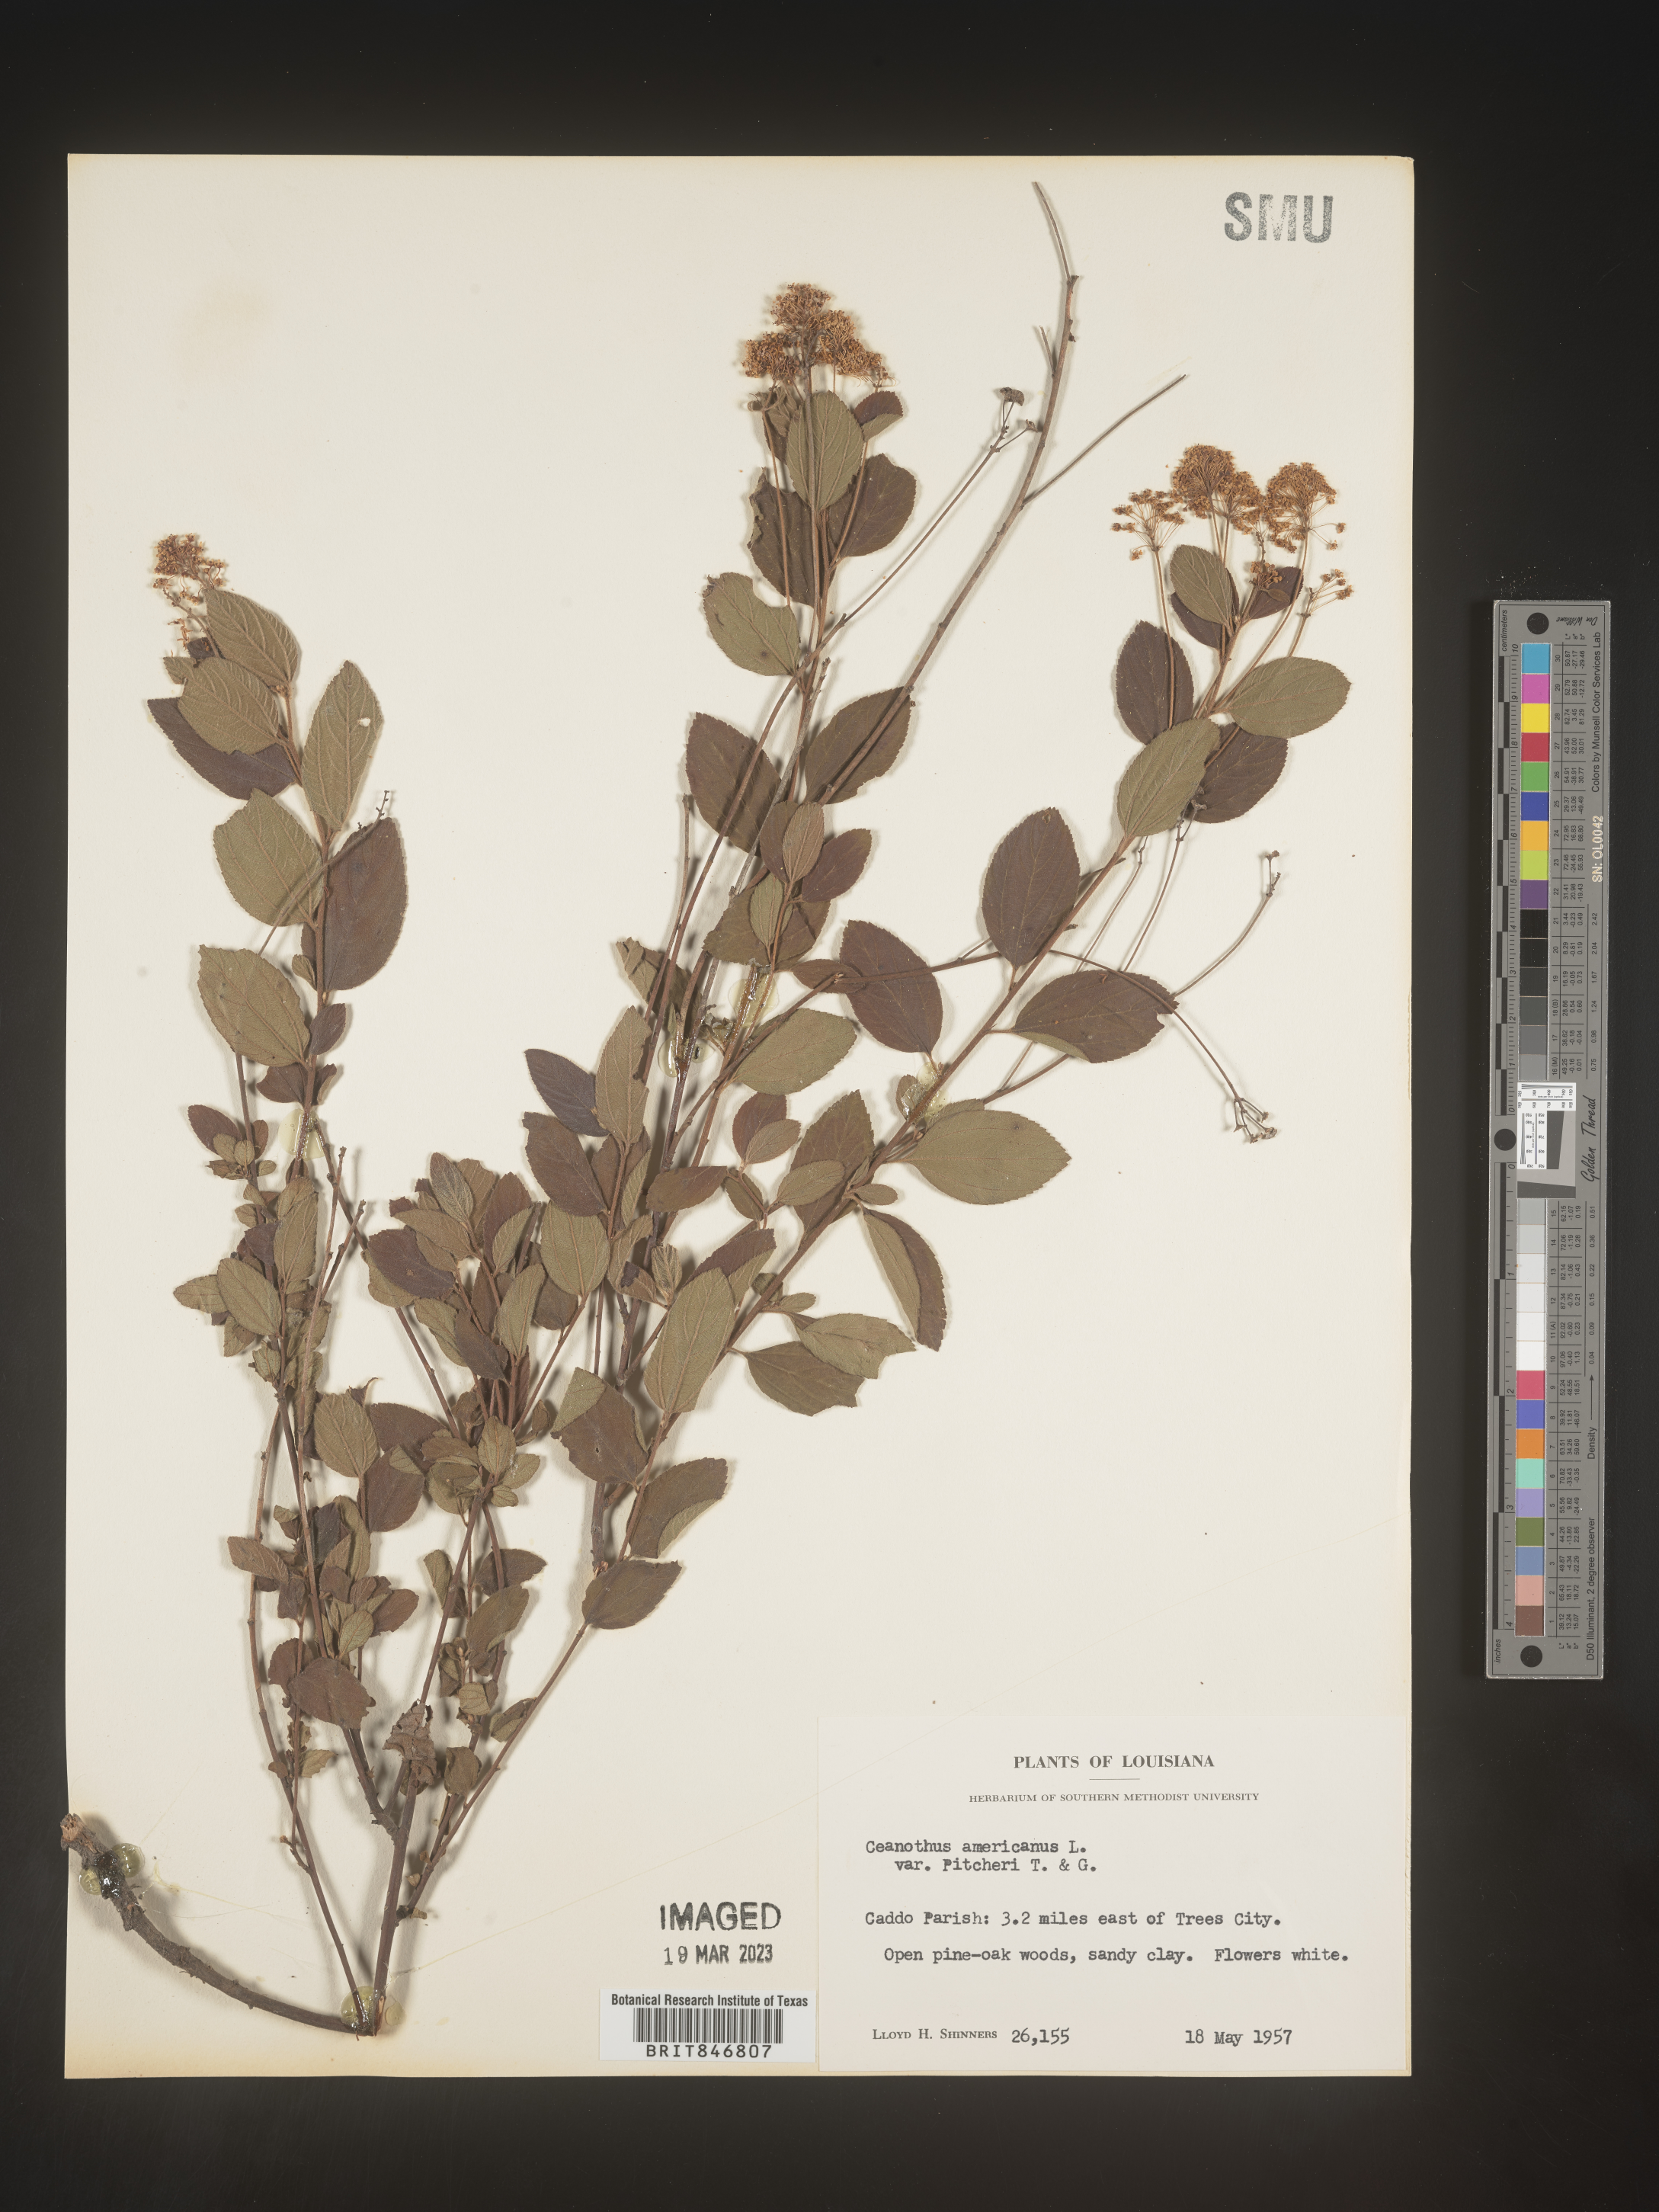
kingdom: Plantae
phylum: Tracheophyta
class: Magnoliopsida
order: Rosales
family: Rhamnaceae
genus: Ceanothus
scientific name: Ceanothus americanus
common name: Redroot
